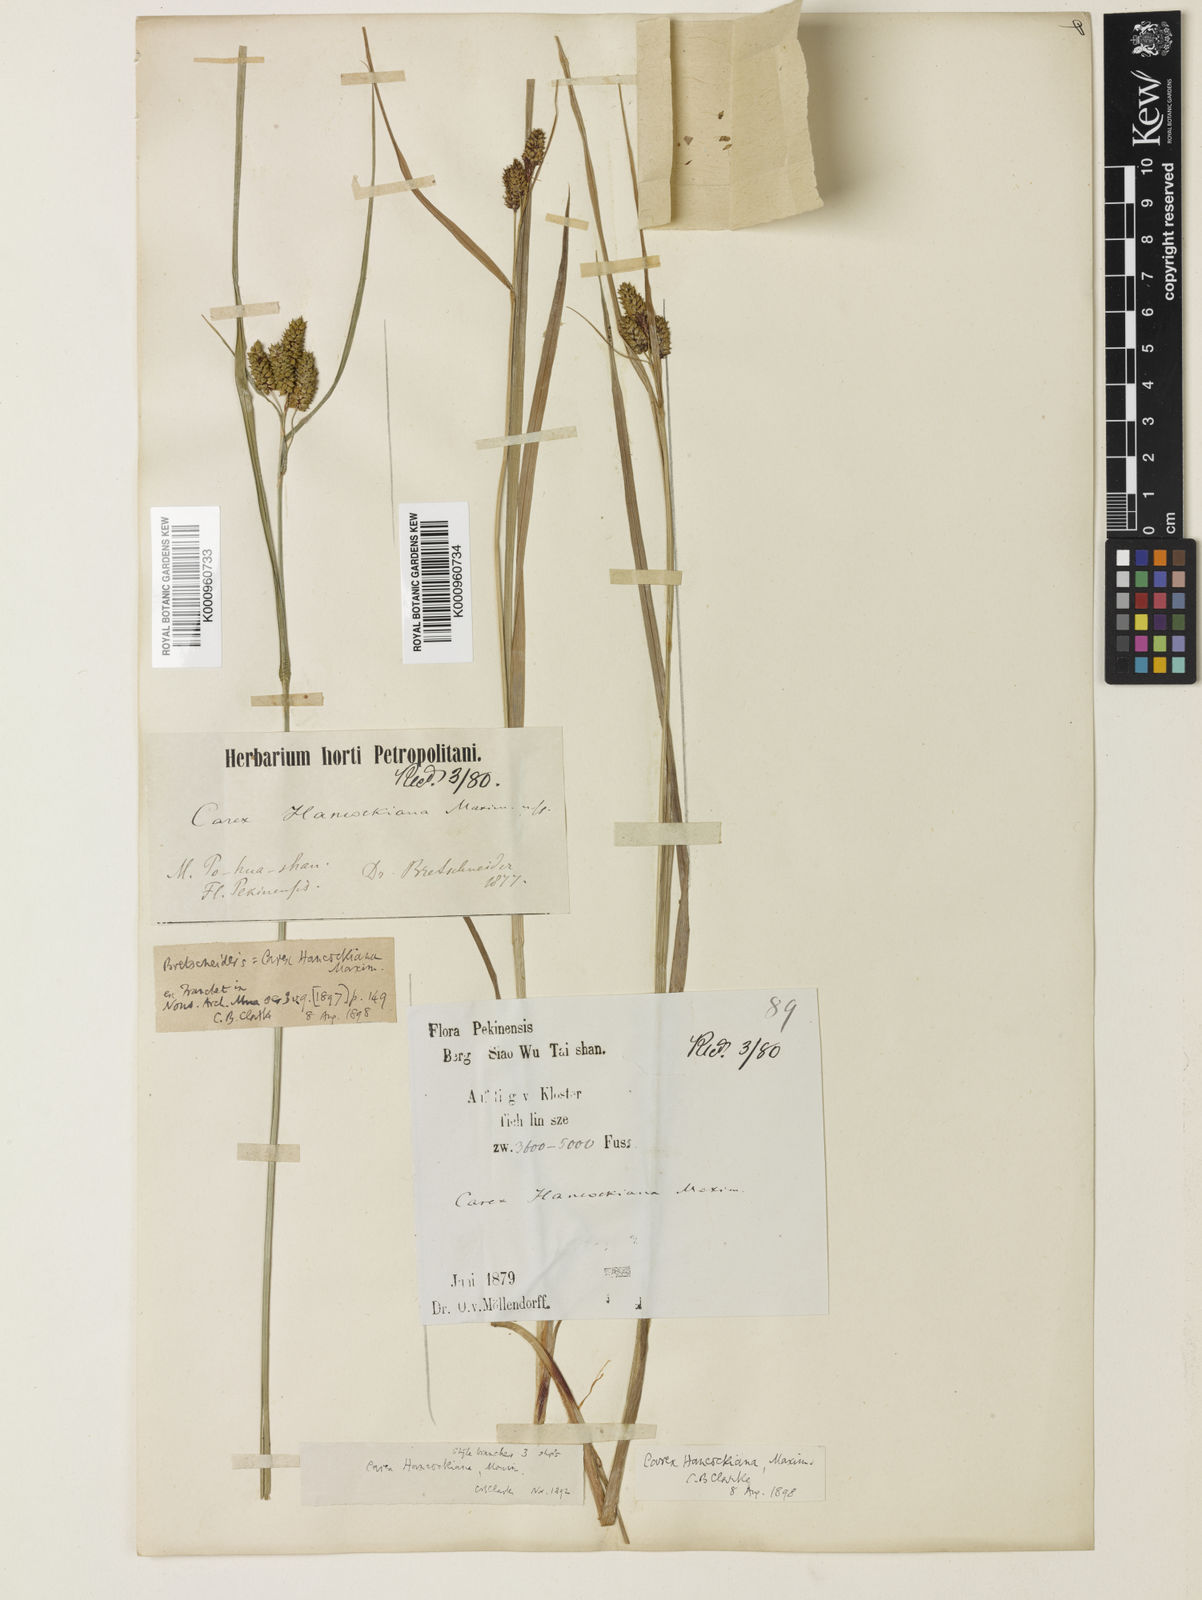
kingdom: Plantae
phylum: Tracheophyta
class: Liliopsida
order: Poales
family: Cyperaceae
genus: Carex
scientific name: Carex hancockiana
